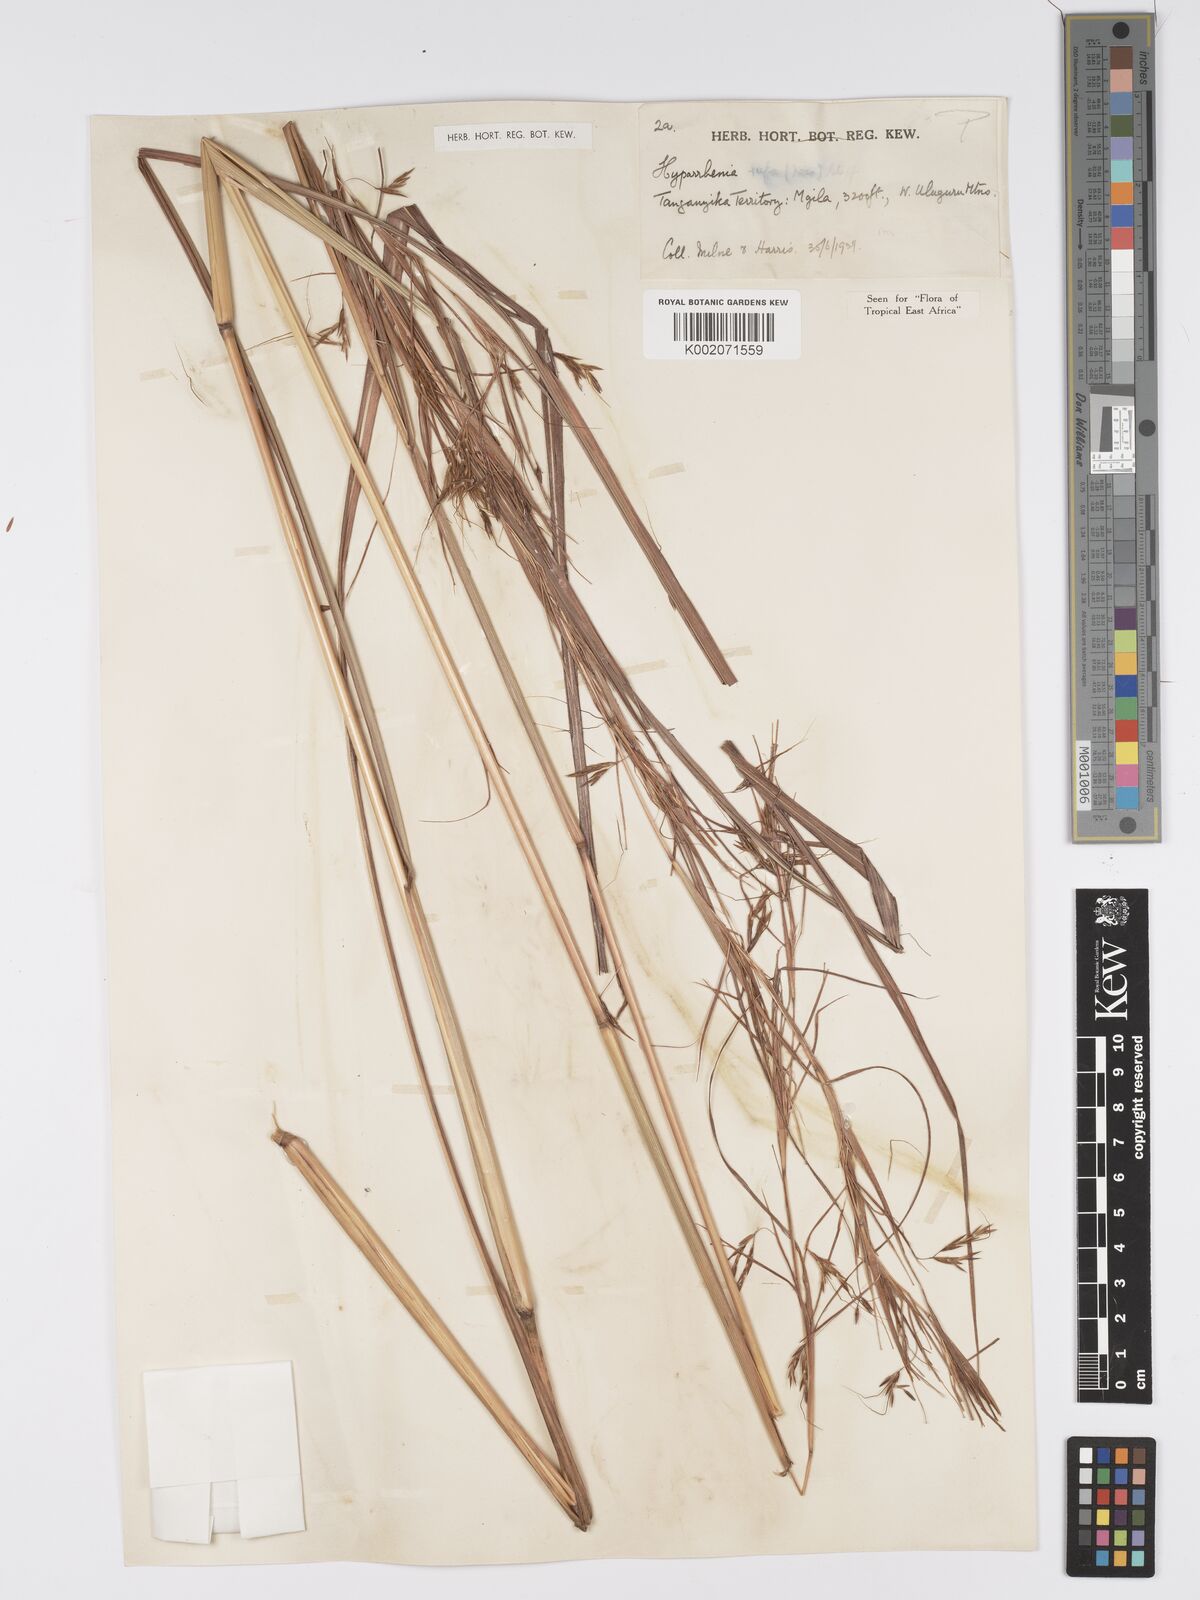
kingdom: Plantae
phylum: Tracheophyta
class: Liliopsida
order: Poales
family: Poaceae
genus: Hyparrhenia
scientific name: Hyparrhenia rufa
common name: Jaraguagrass
